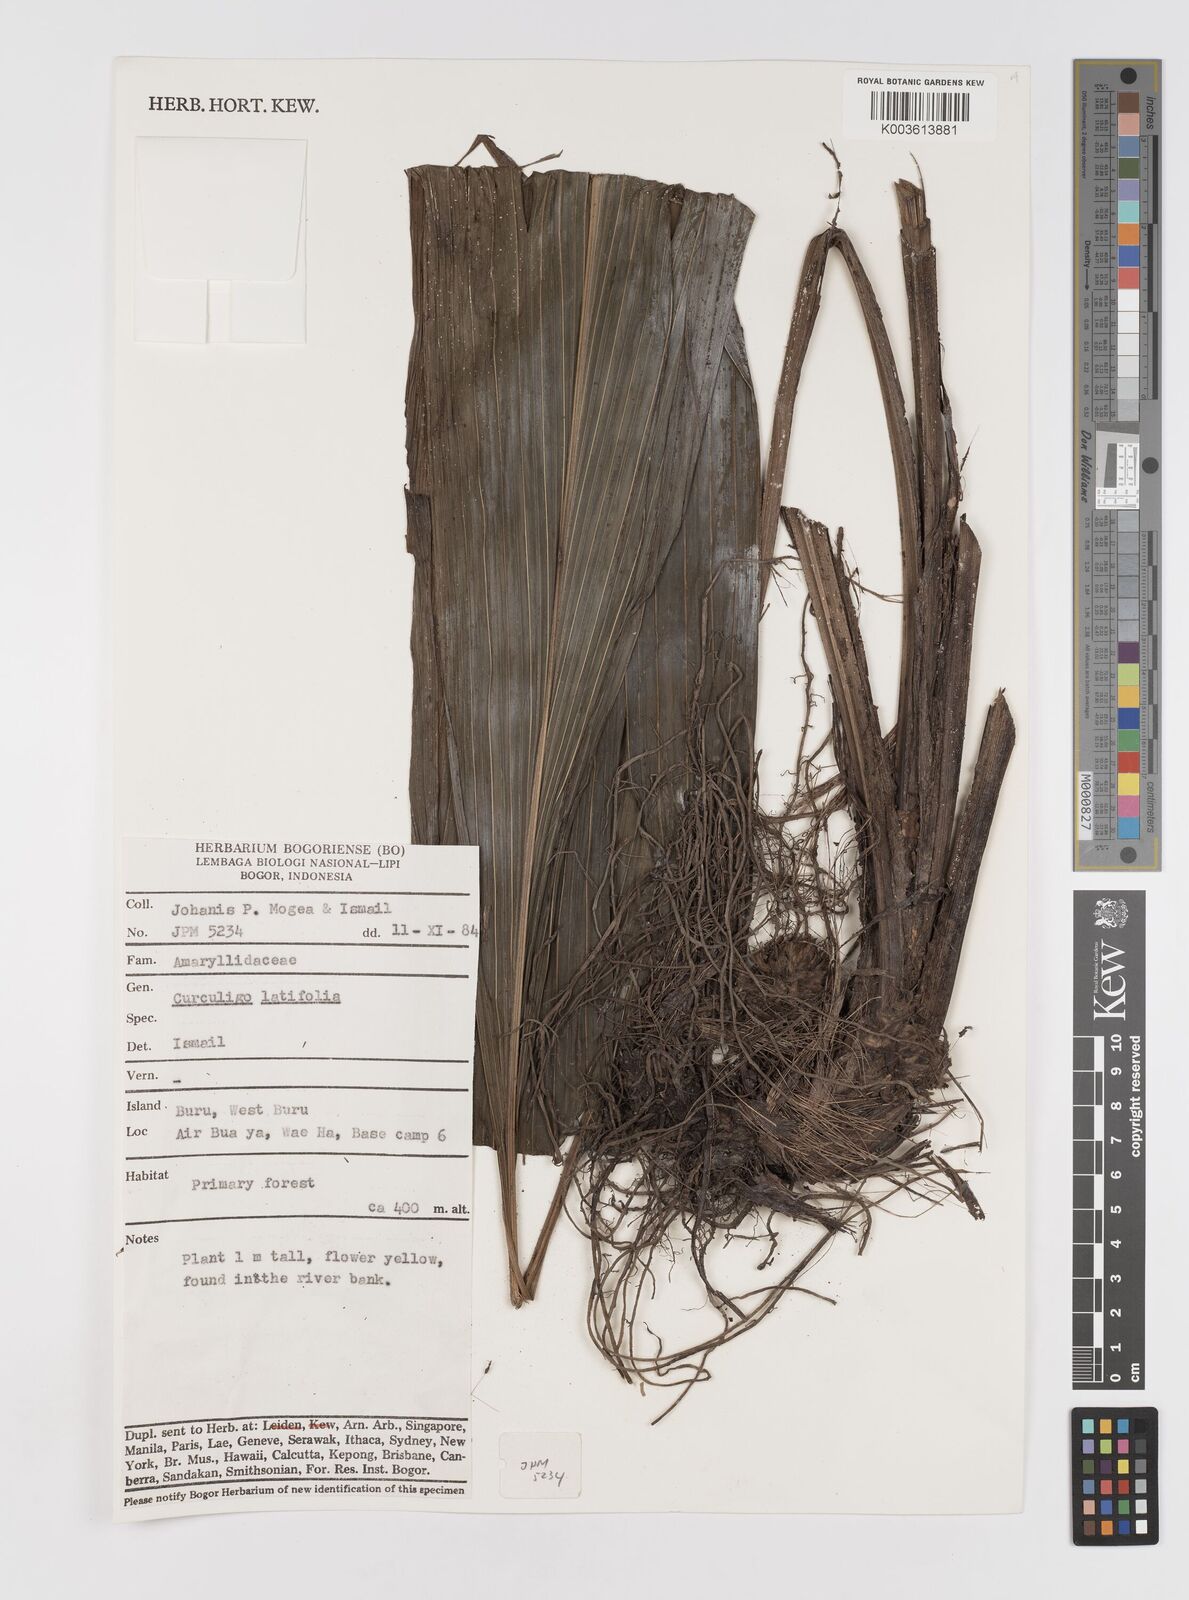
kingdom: Plantae
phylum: Tracheophyta
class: Liliopsida
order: Asparagales
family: Hypoxidaceae
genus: Curculigo
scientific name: Curculigo latifolia
